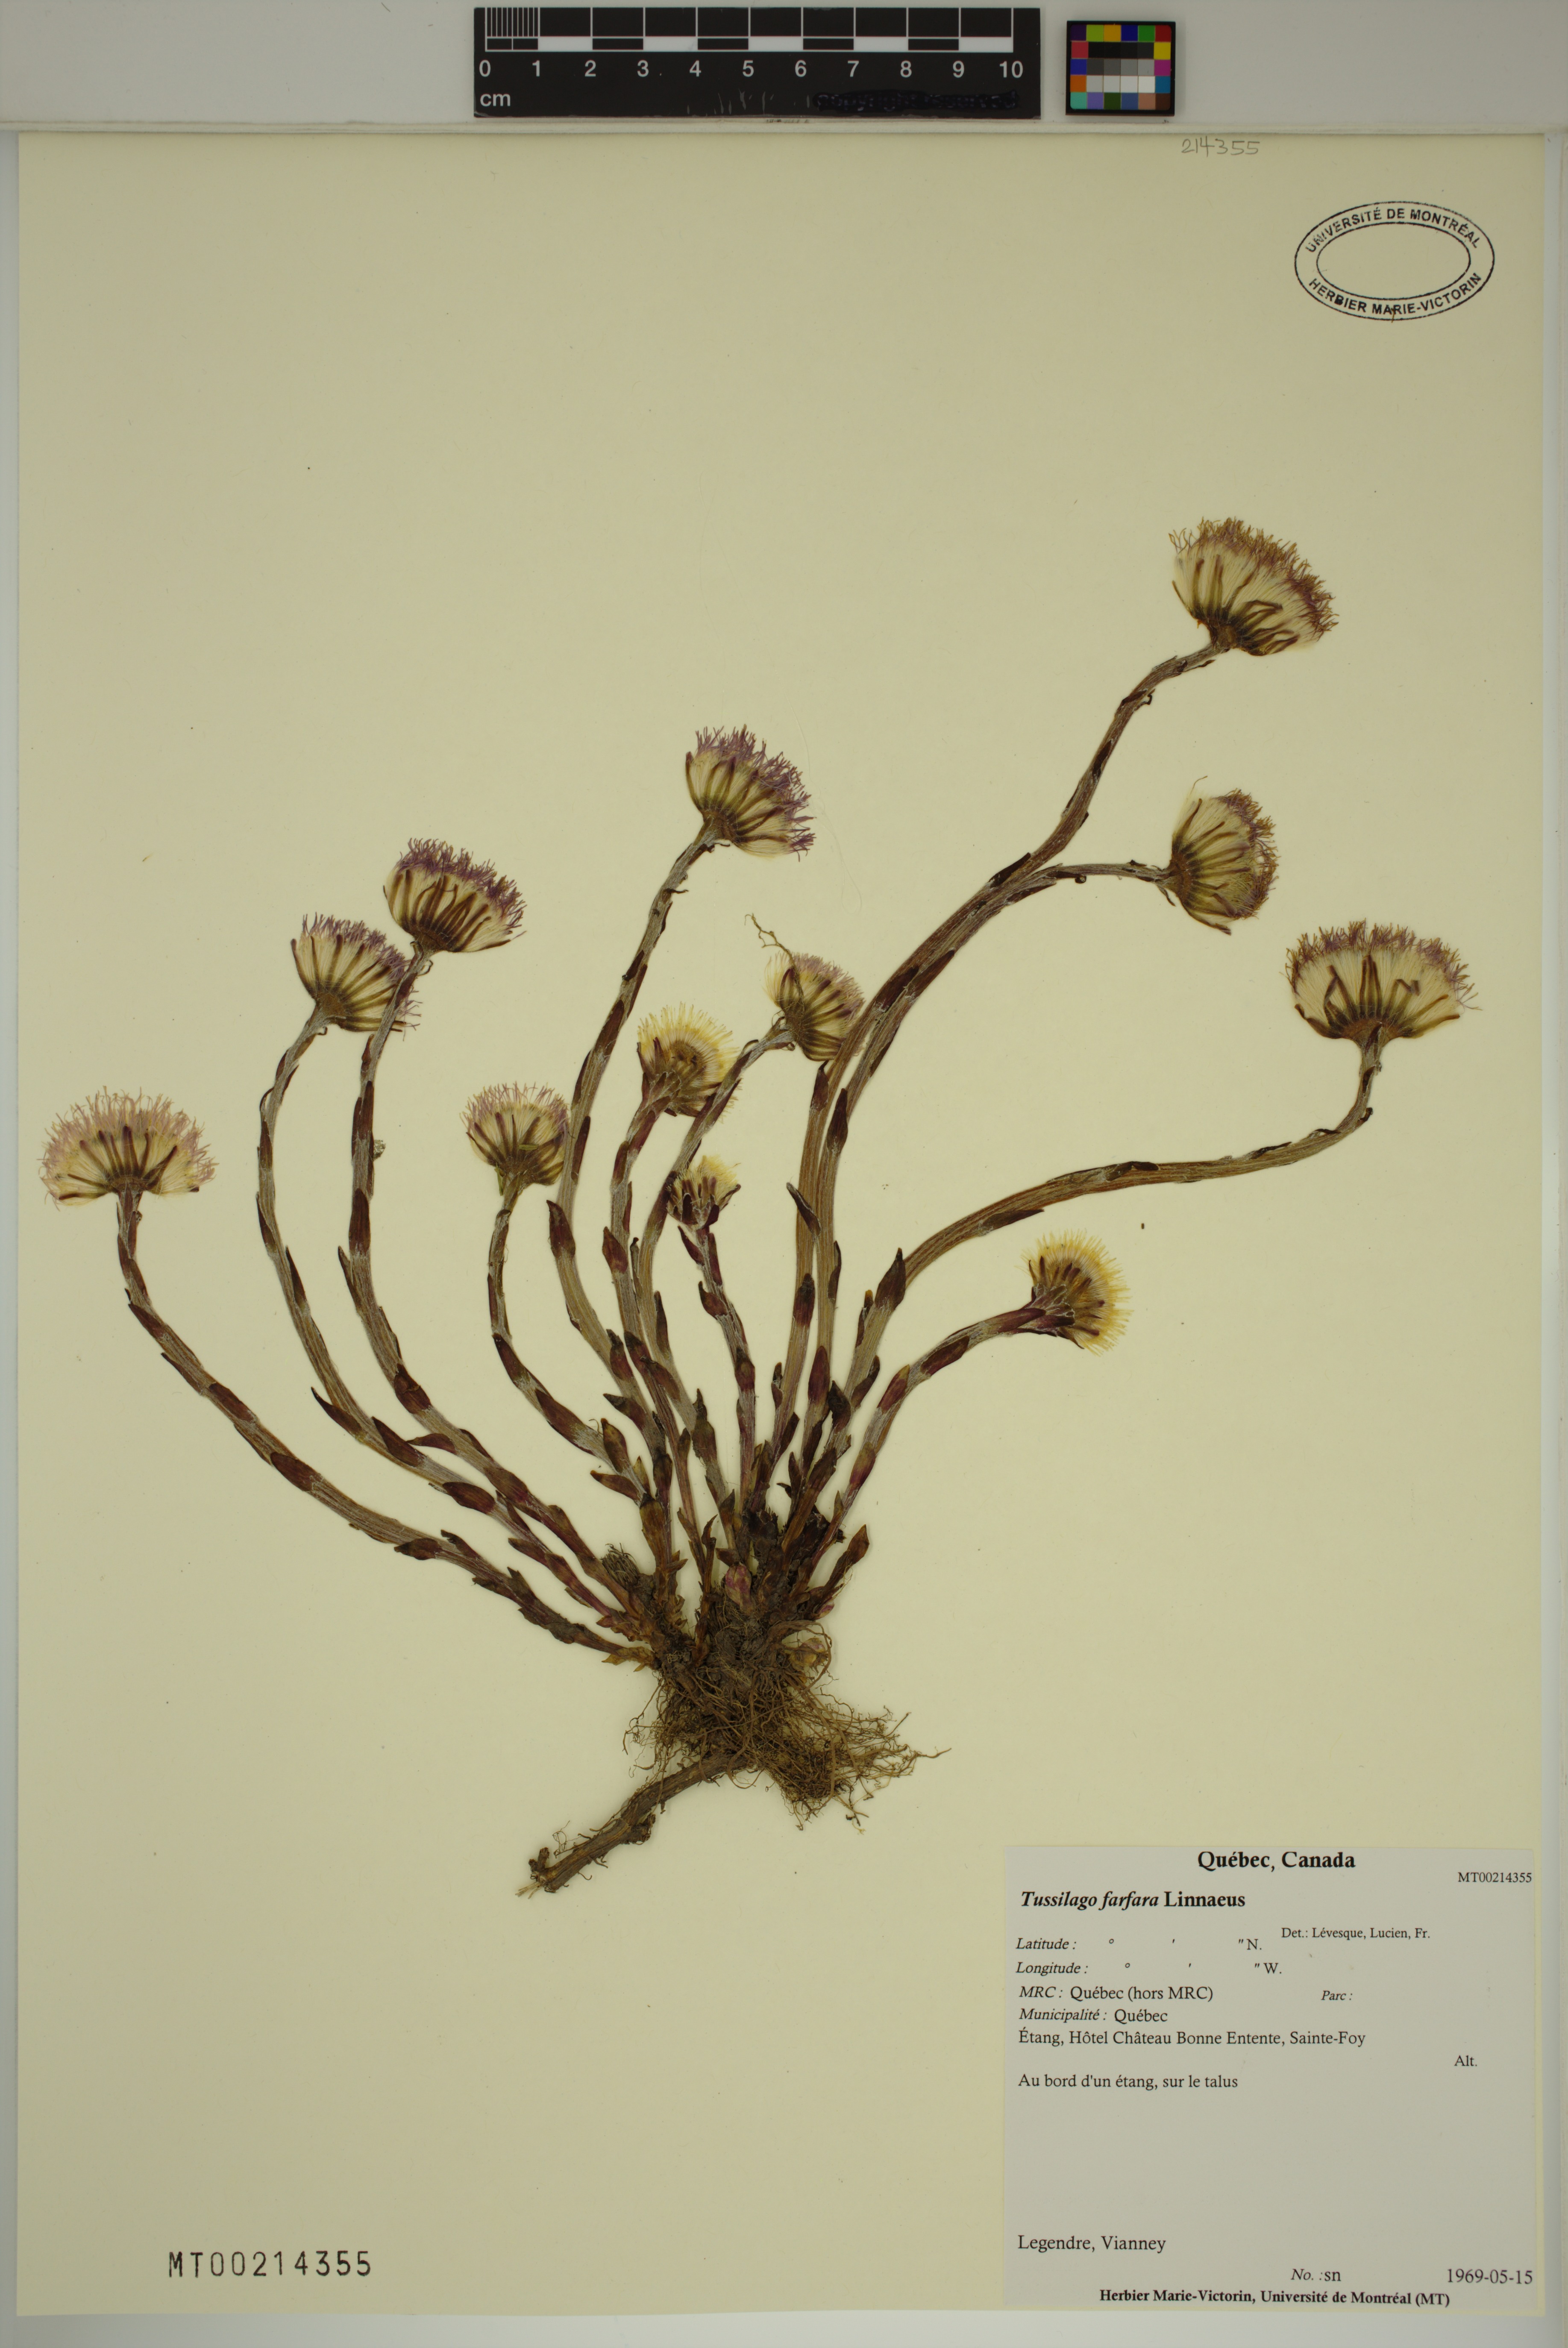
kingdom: Plantae
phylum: Tracheophyta
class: Magnoliopsida
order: Asterales
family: Asteraceae
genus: Tussilago
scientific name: Tussilago farfara
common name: Coltsfoot
